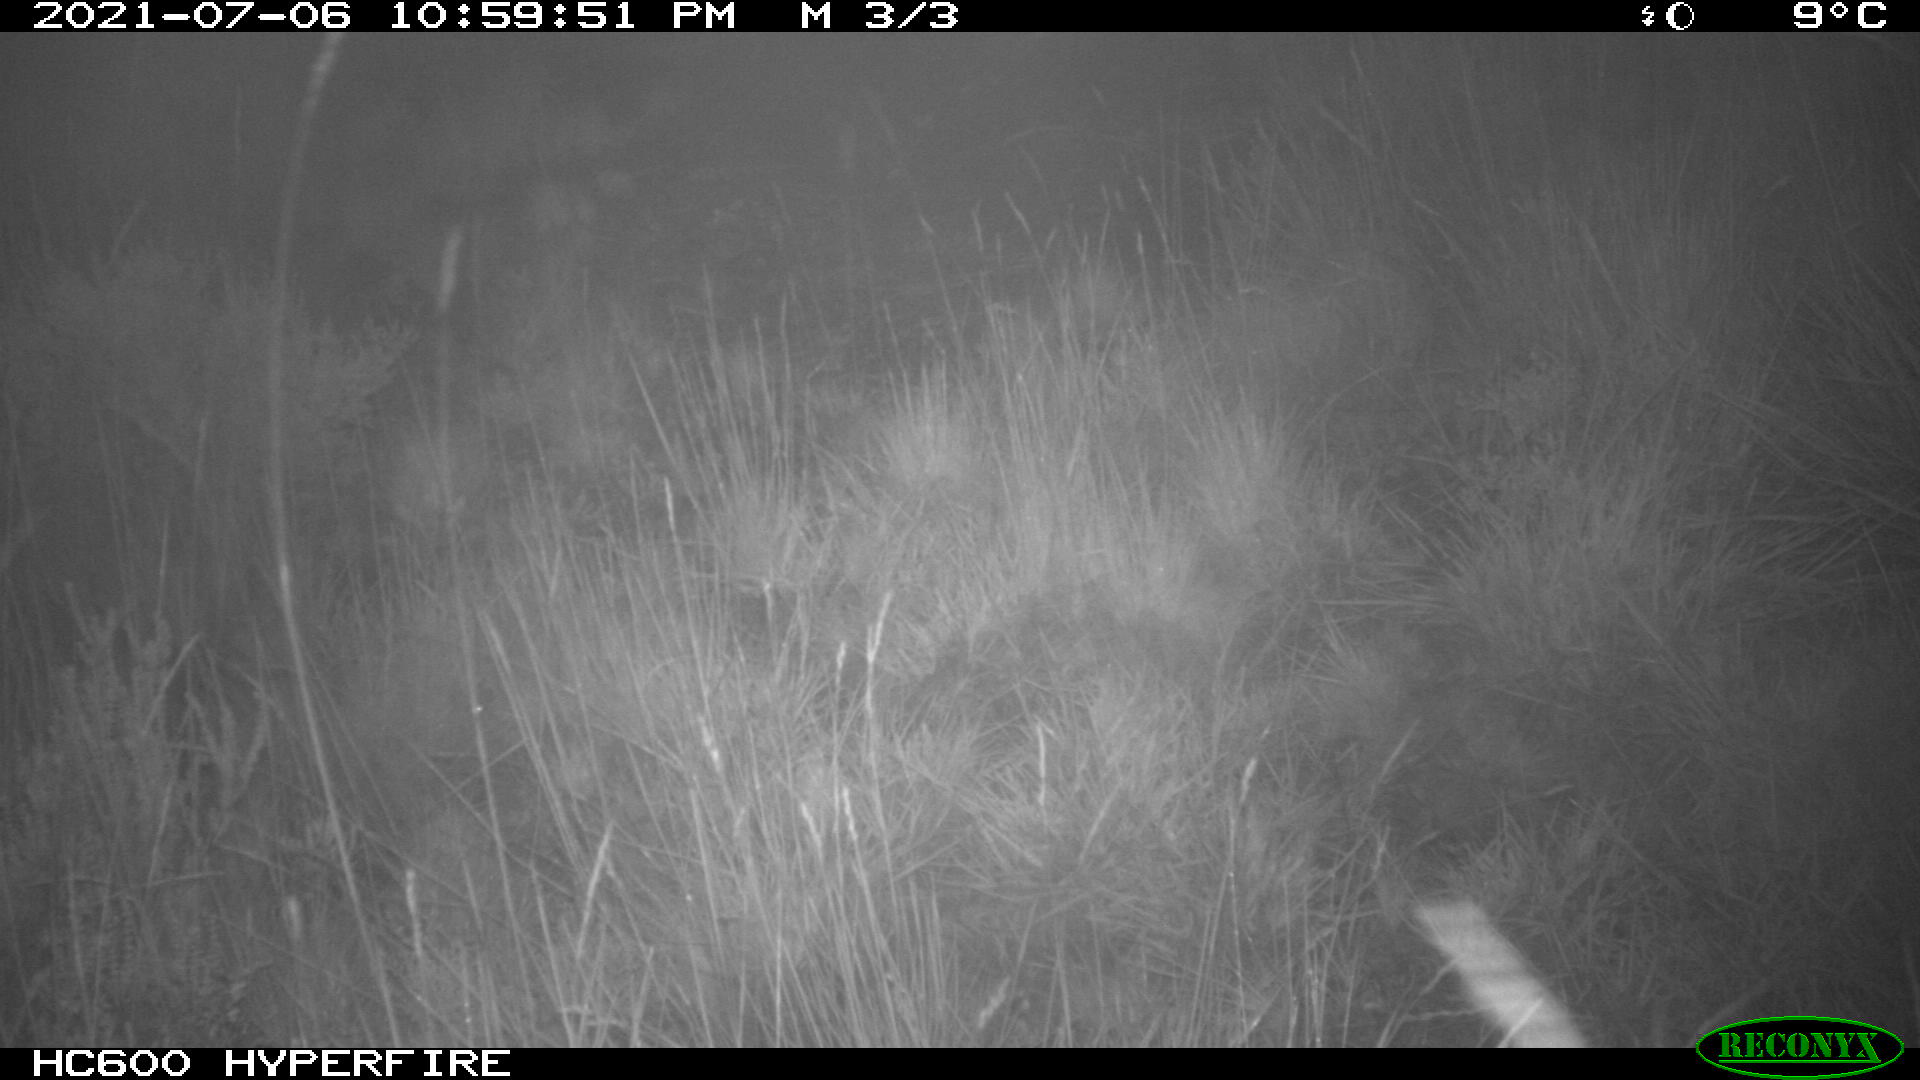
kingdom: Animalia
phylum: Chordata
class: Mammalia
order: Artiodactyla
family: Suidae
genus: Sus
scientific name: Sus scrofa
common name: Wild boar
